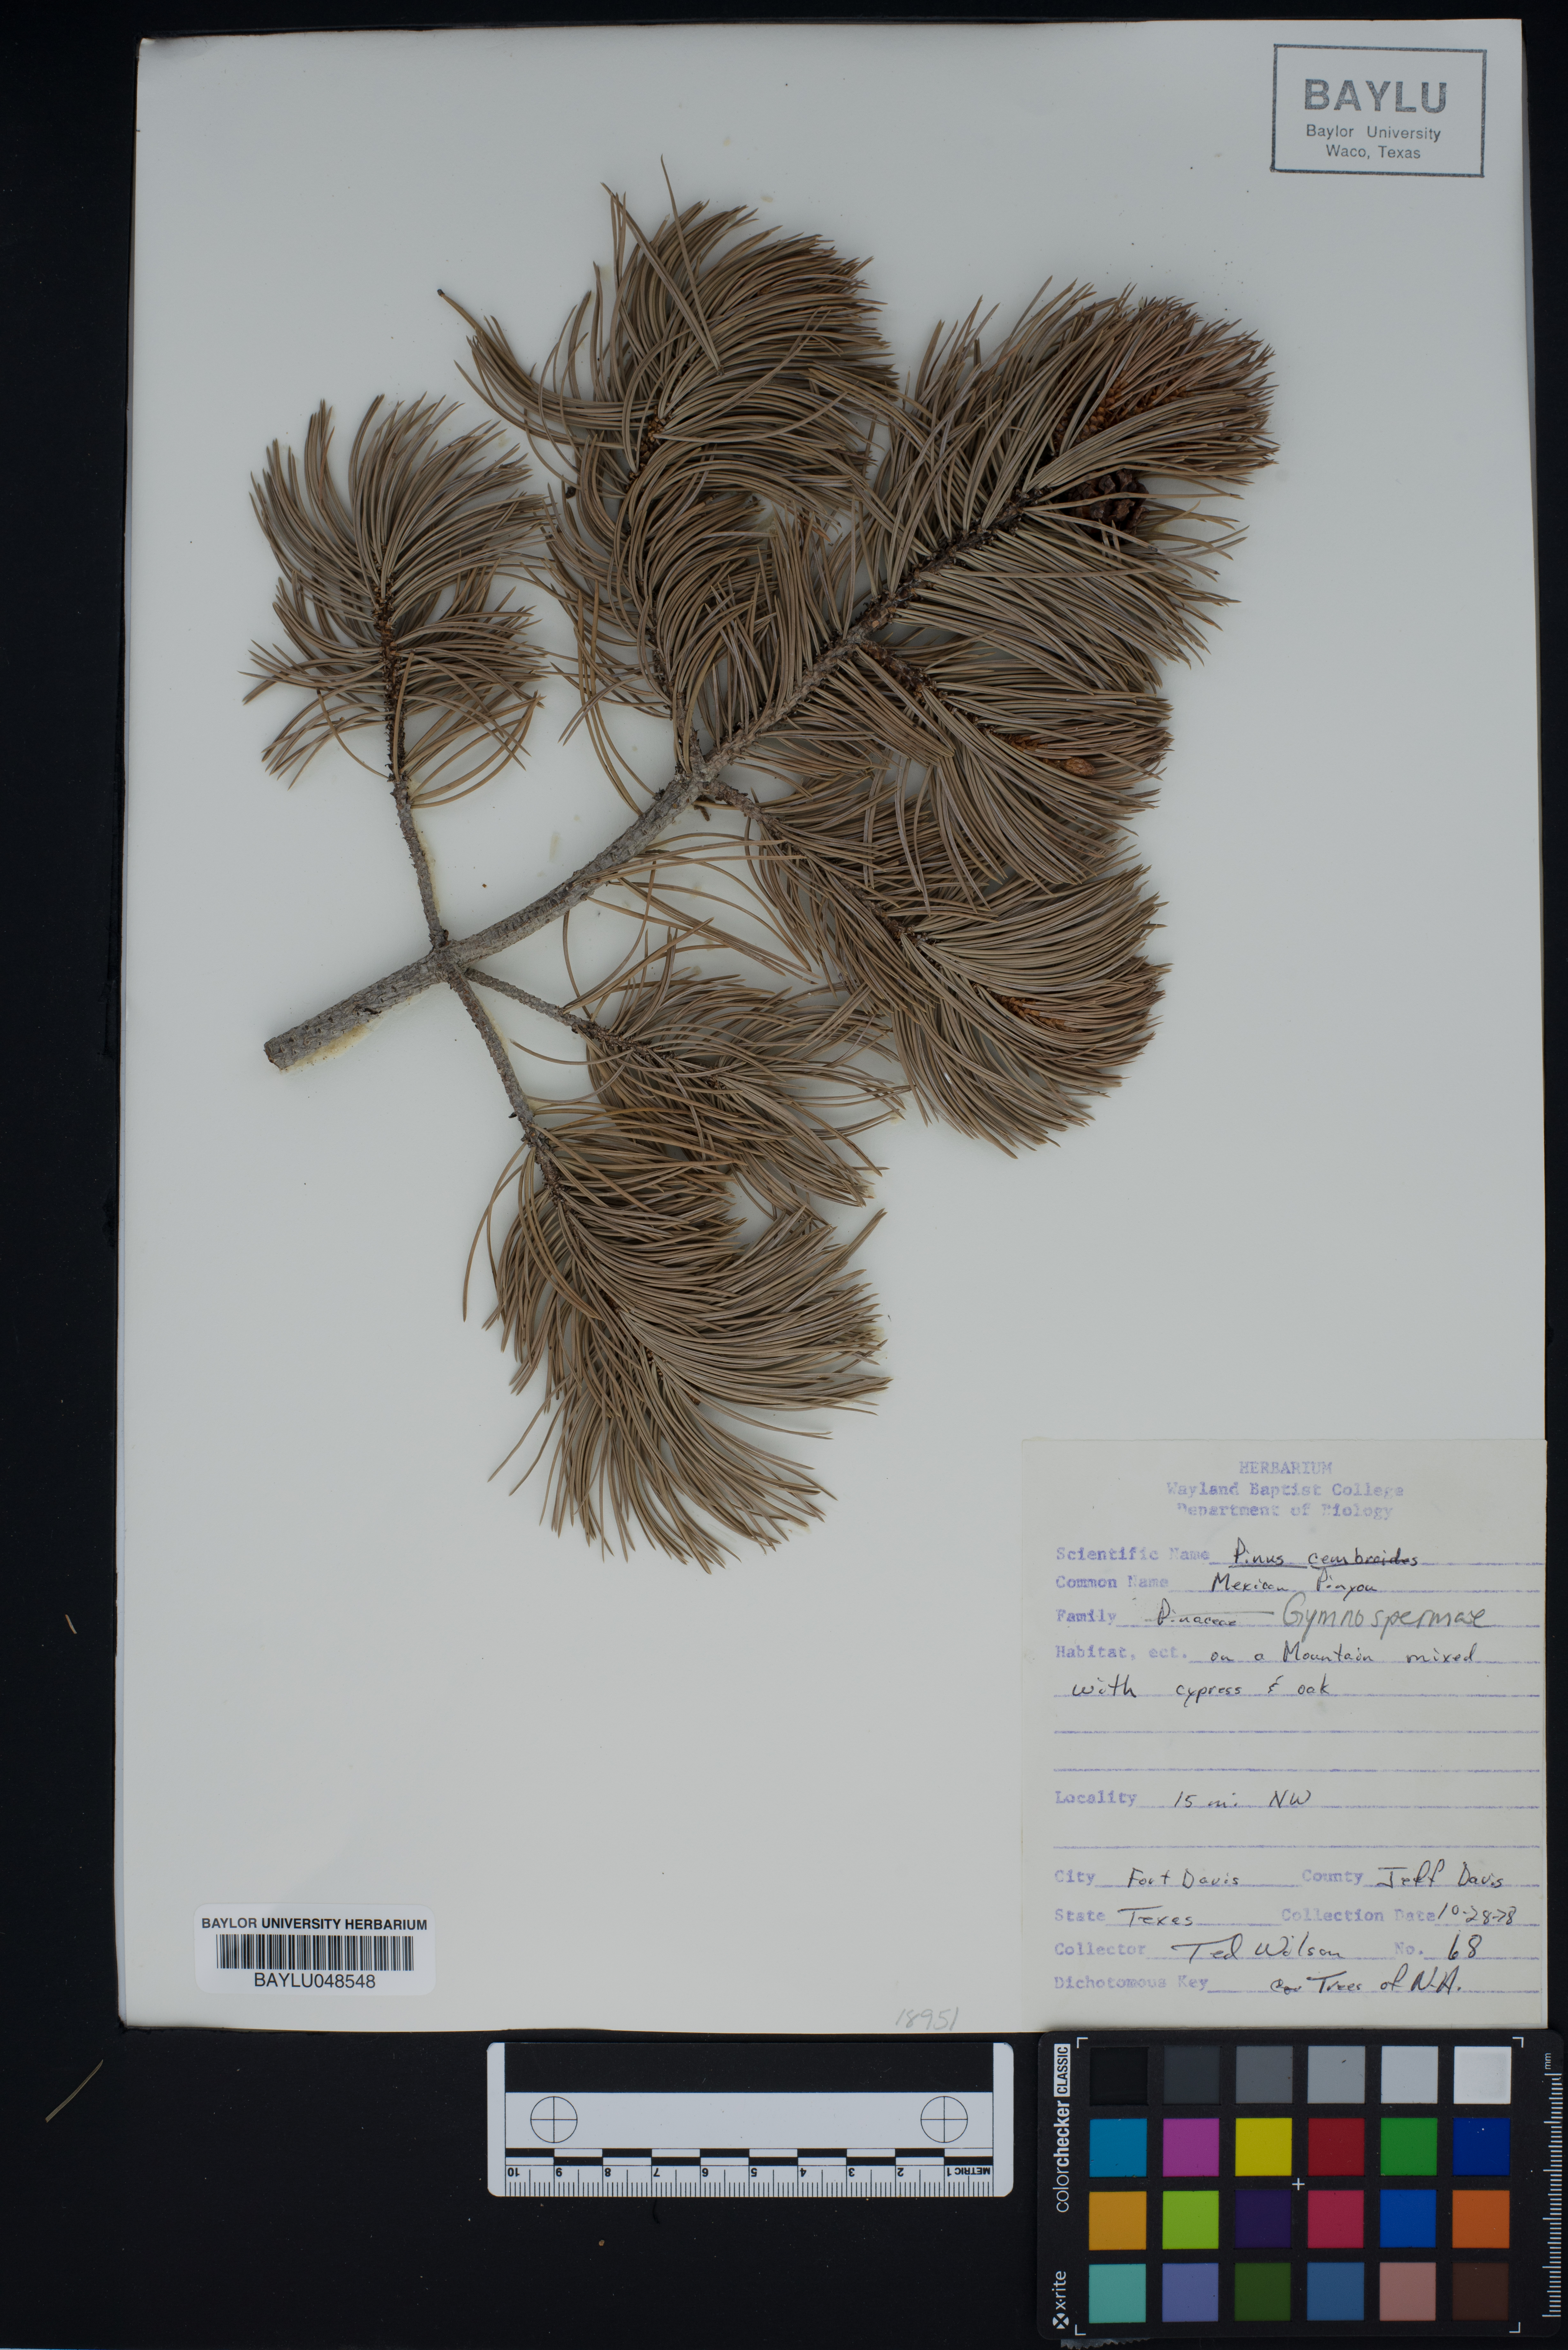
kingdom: Plantae
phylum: Tracheophyta
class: Pinopsida
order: Pinales
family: Pinaceae
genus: Pinus
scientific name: Pinus cembroides
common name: Mexican nut pine
